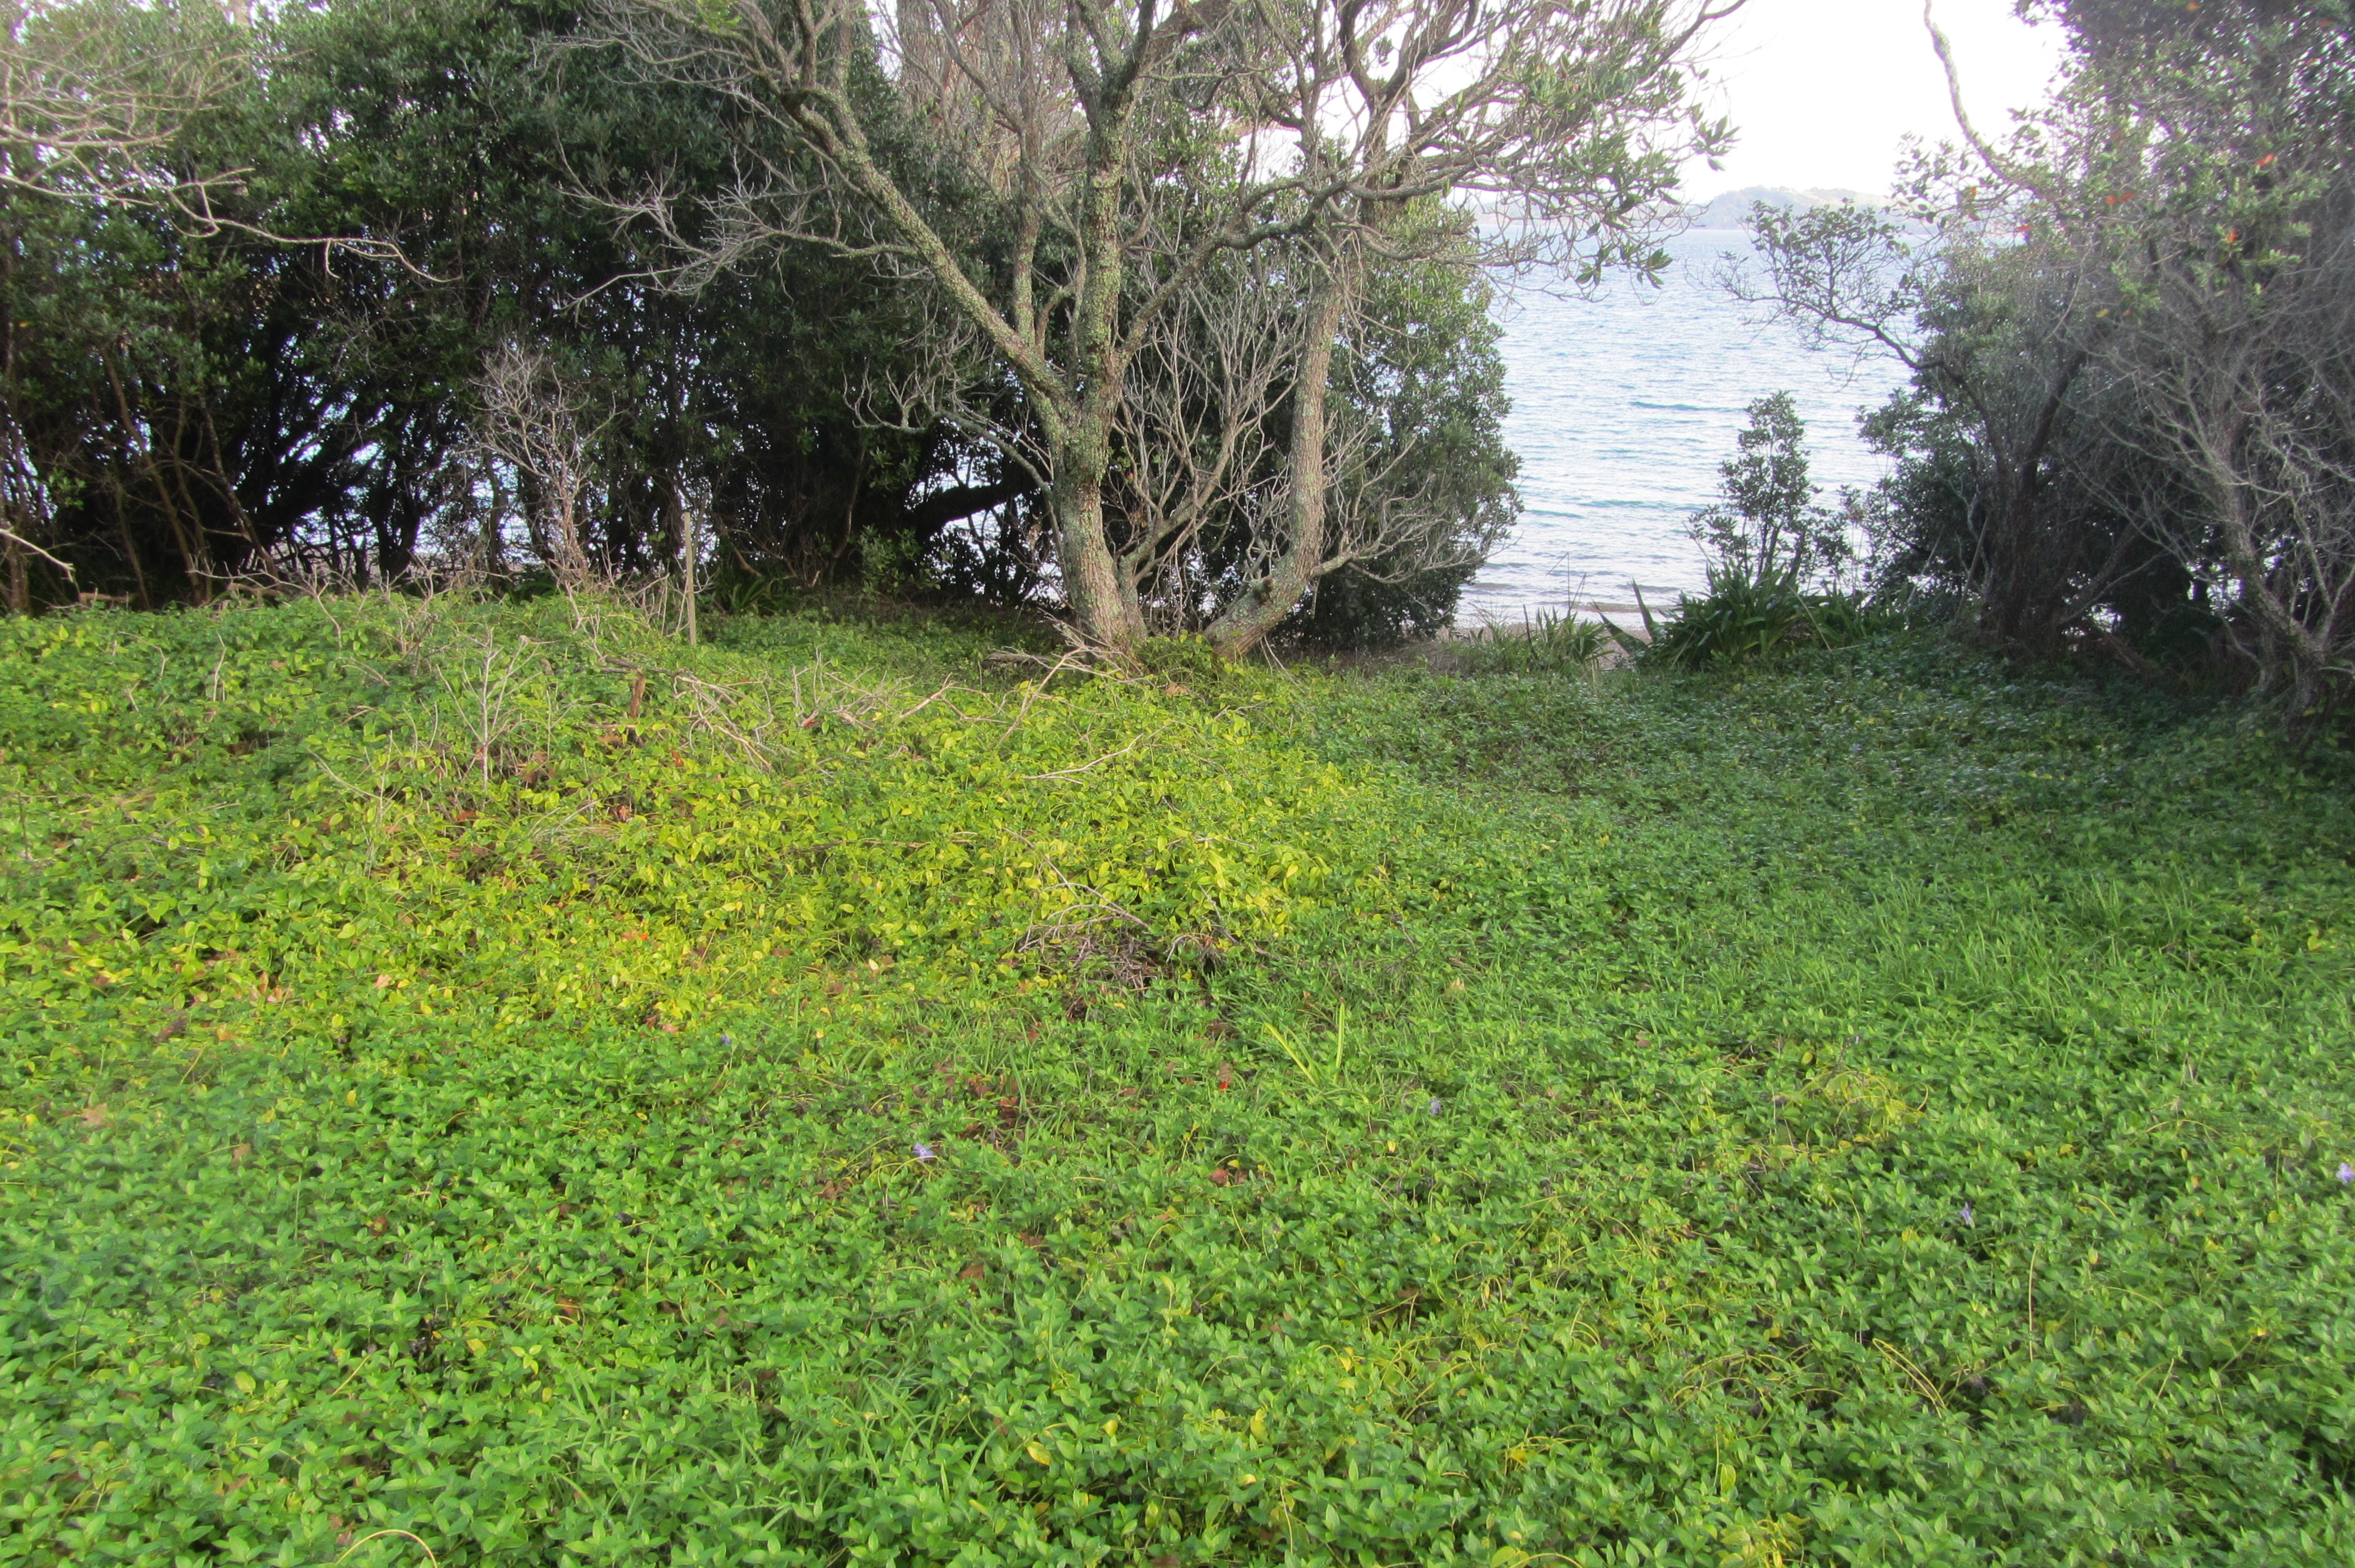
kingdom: Plantae
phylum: Tracheophyta
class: Magnoliopsida
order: Gentianales
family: Apocynaceae
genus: Vinca
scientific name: Vinca major
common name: Greater periwinkle
